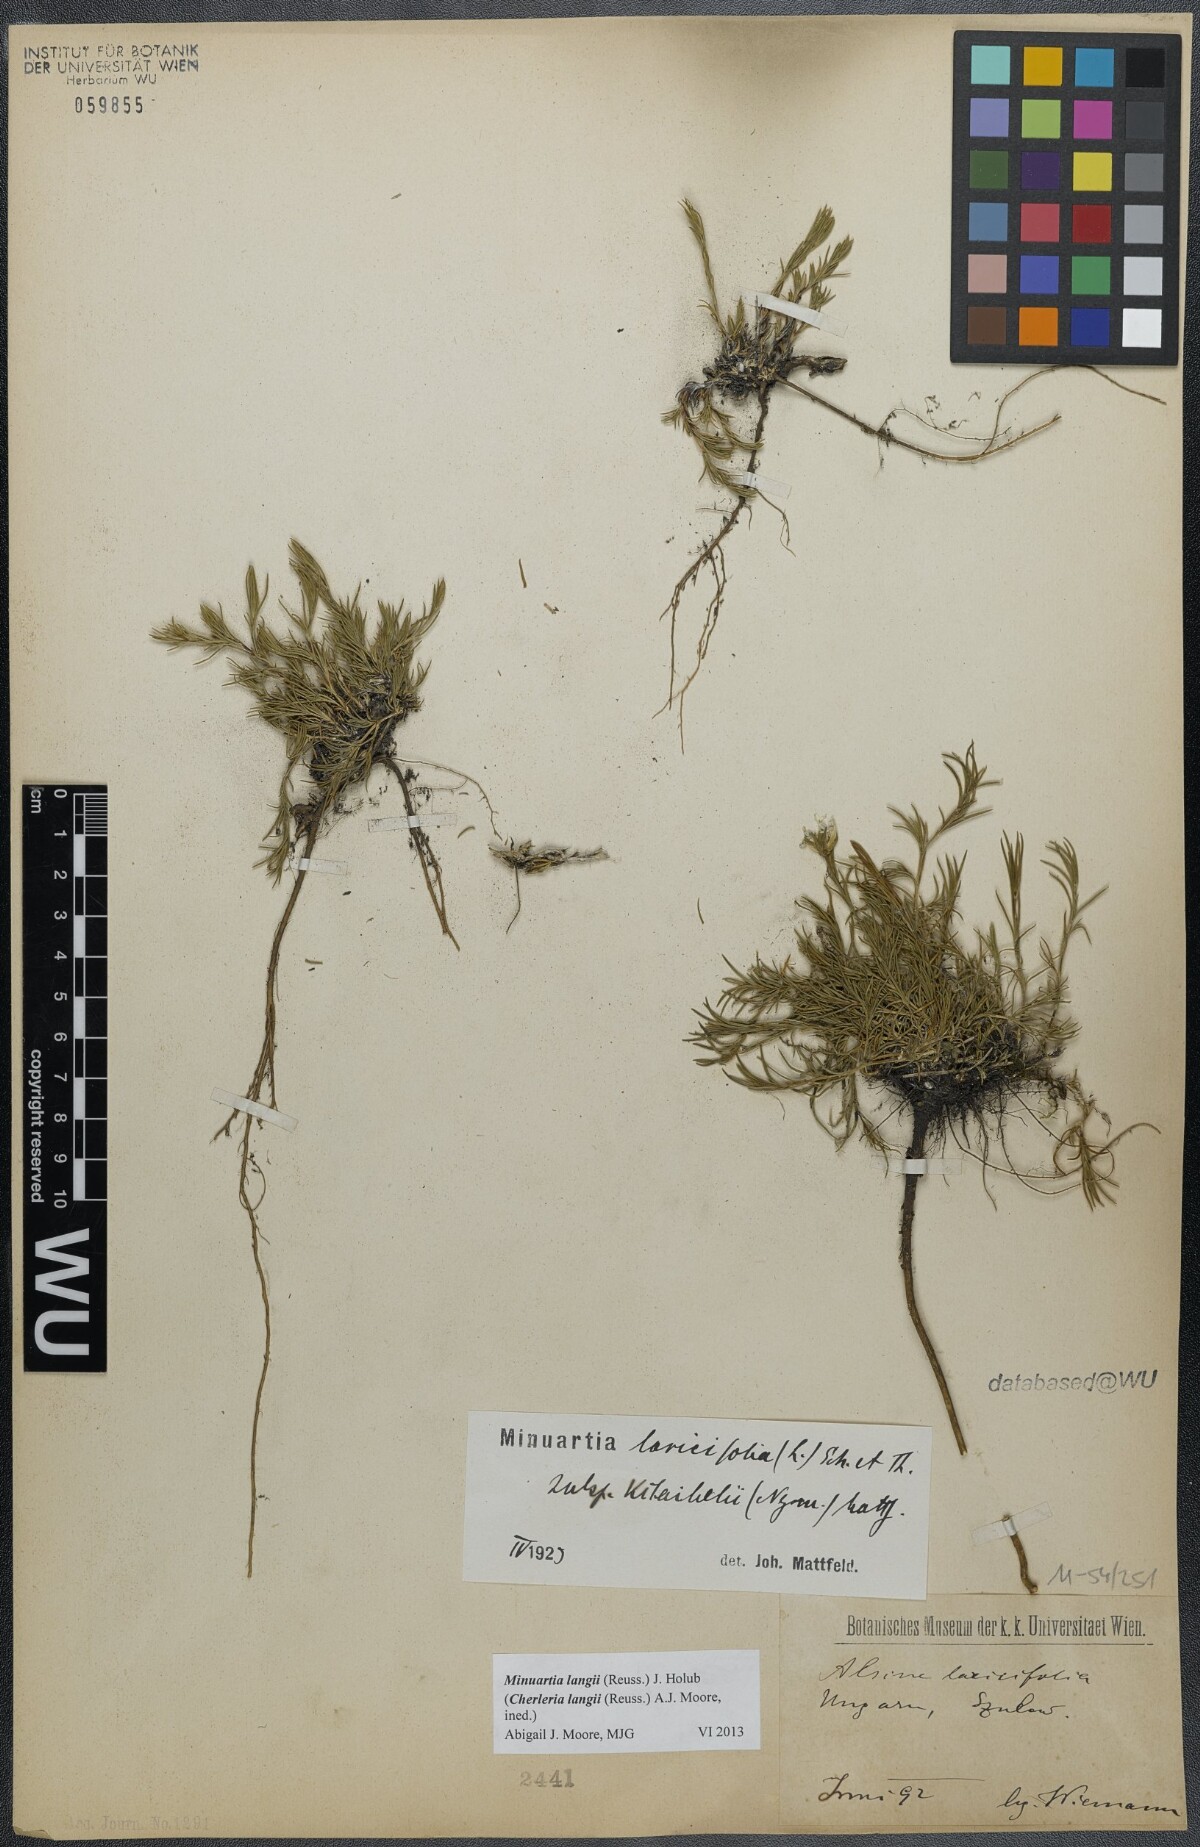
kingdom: Plantae
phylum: Tracheophyta
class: Magnoliopsida
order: Caryophyllales
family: Caryophyllaceae
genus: Cherleria
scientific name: Cherleria langii
